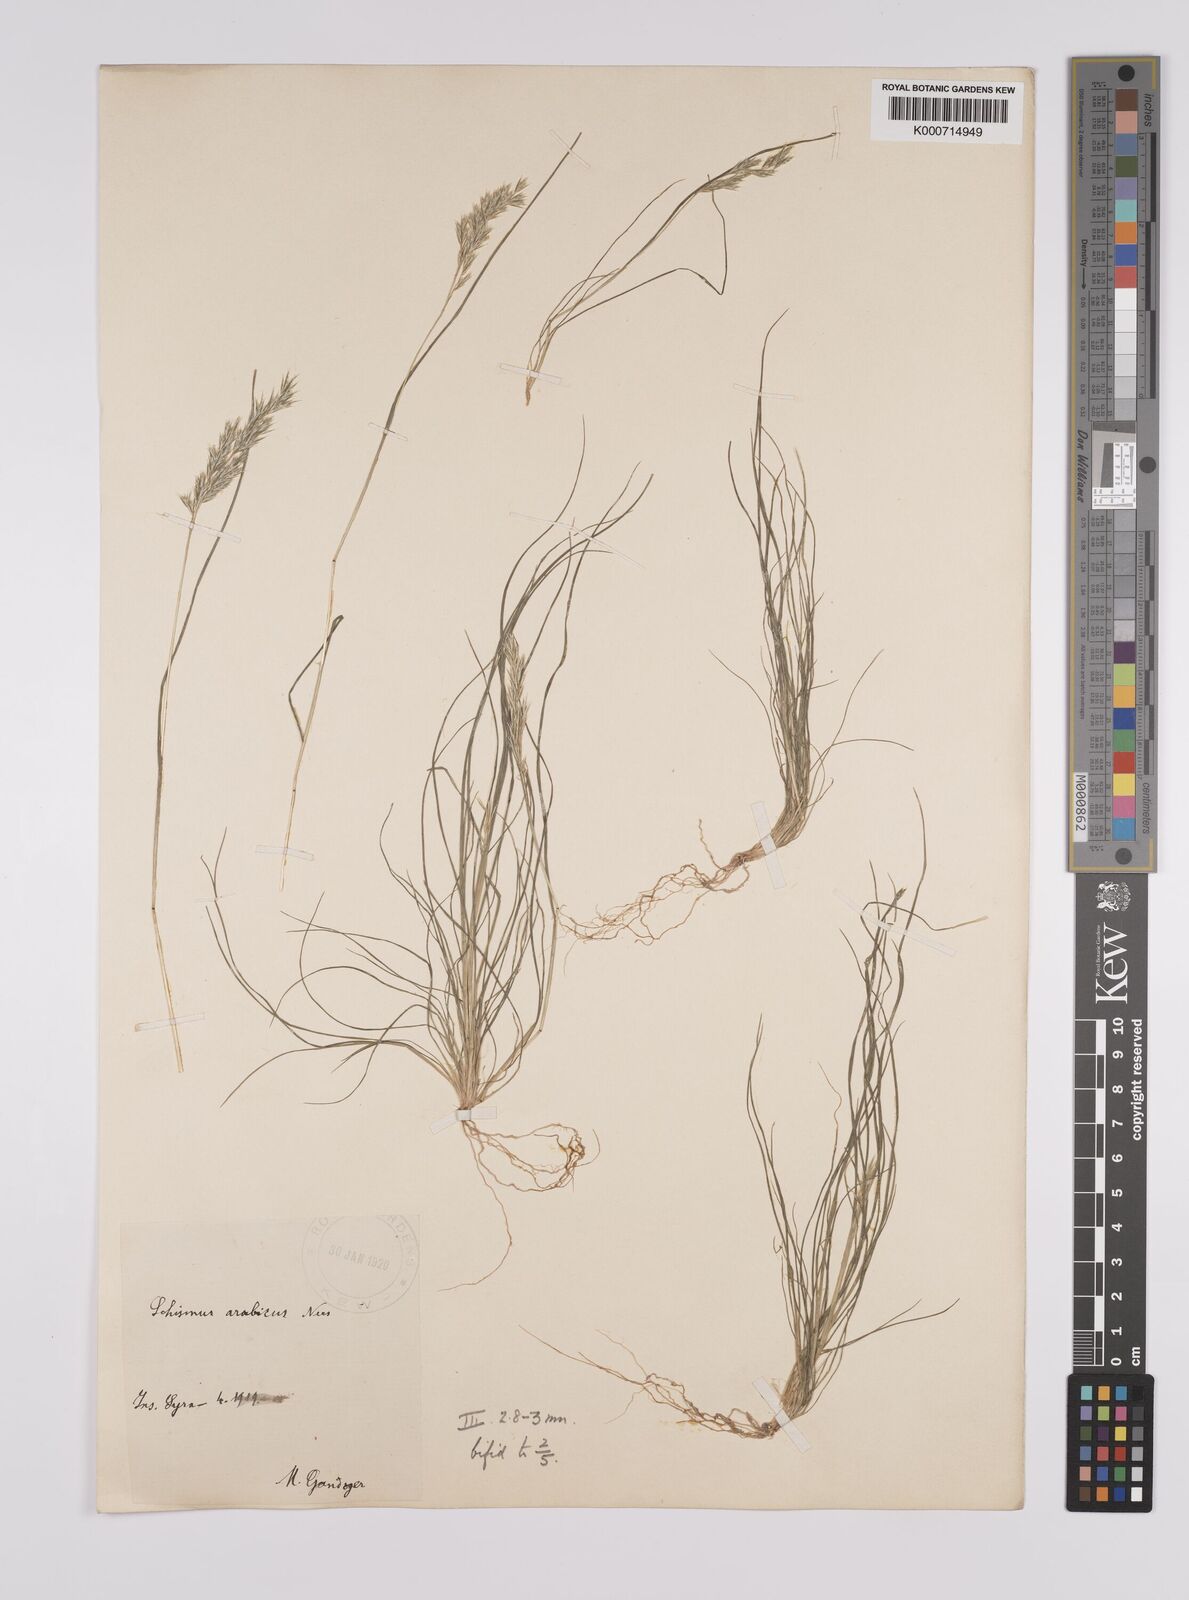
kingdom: Plantae
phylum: Tracheophyta
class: Liliopsida
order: Poales
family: Poaceae
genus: Schismus
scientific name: Schismus arabicus
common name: Arabian schismus
